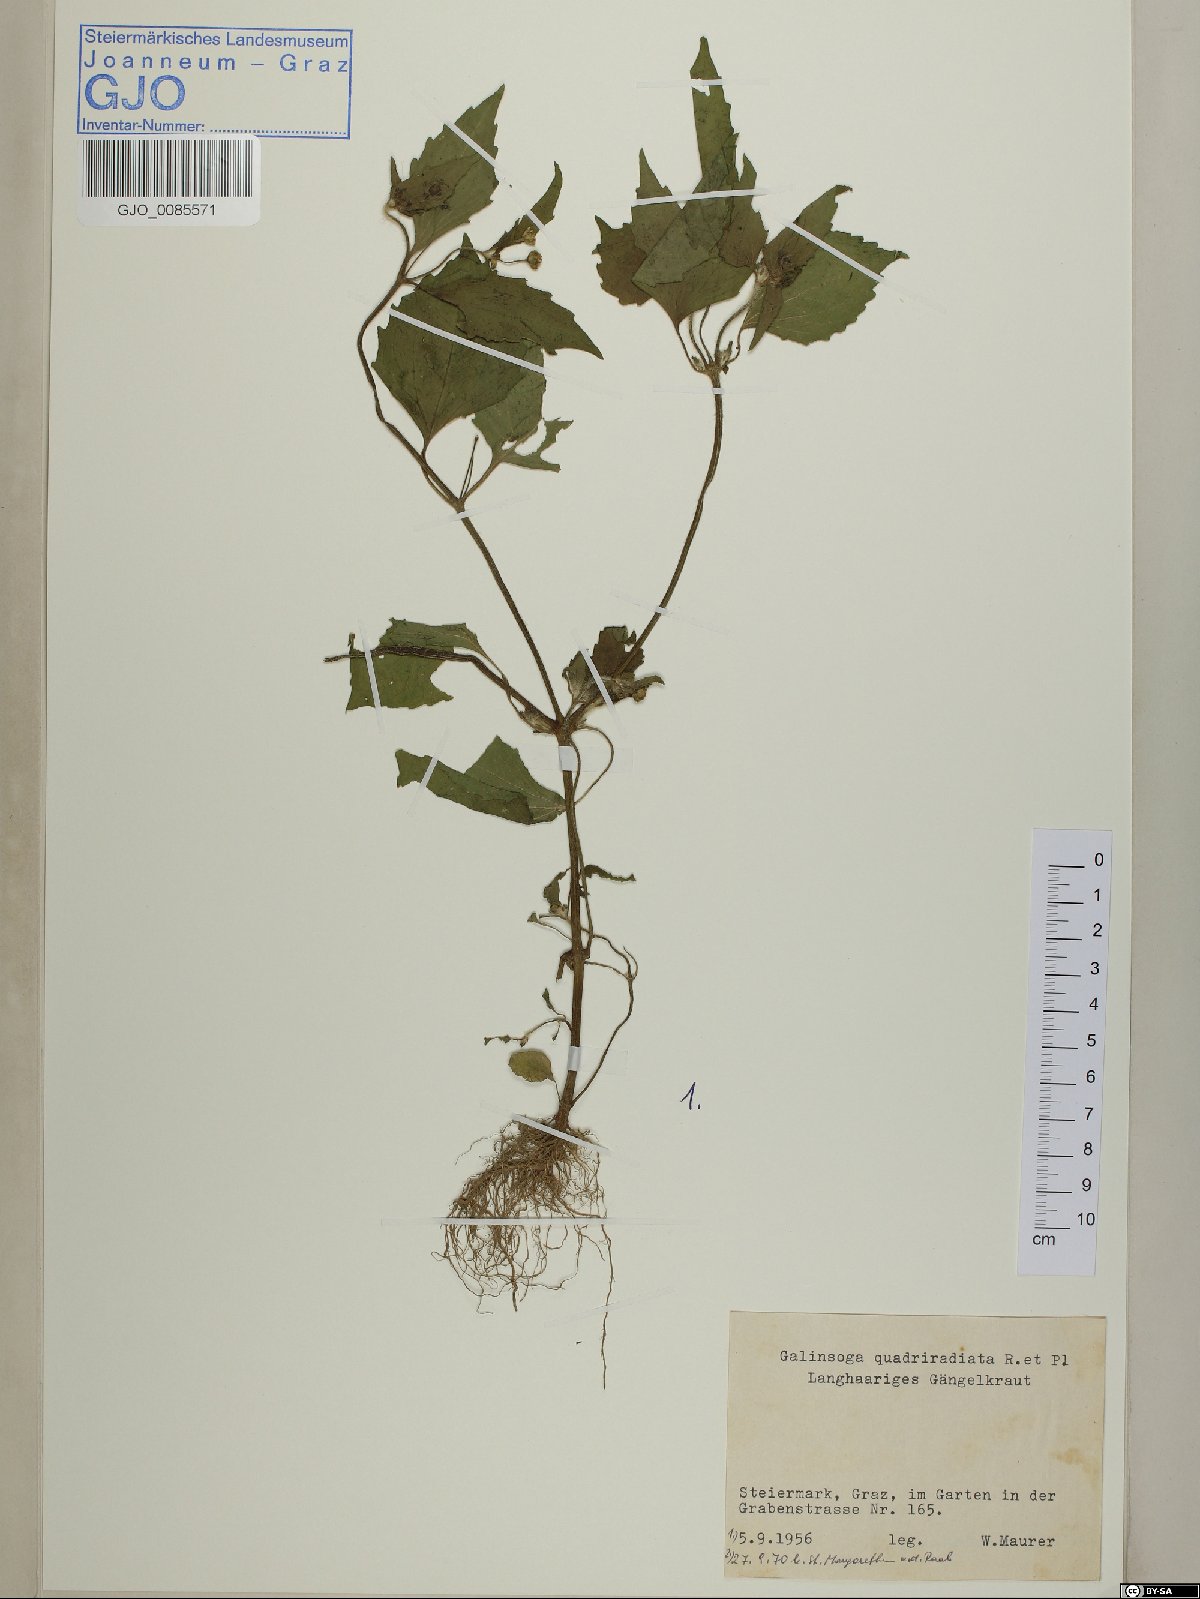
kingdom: Plantae
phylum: Tracheophyta
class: Magnoliopsida
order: Asterales
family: Asteraceae
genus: Galinsoga
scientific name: Galinsoga quadriradiata
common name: Shaggy soldier
